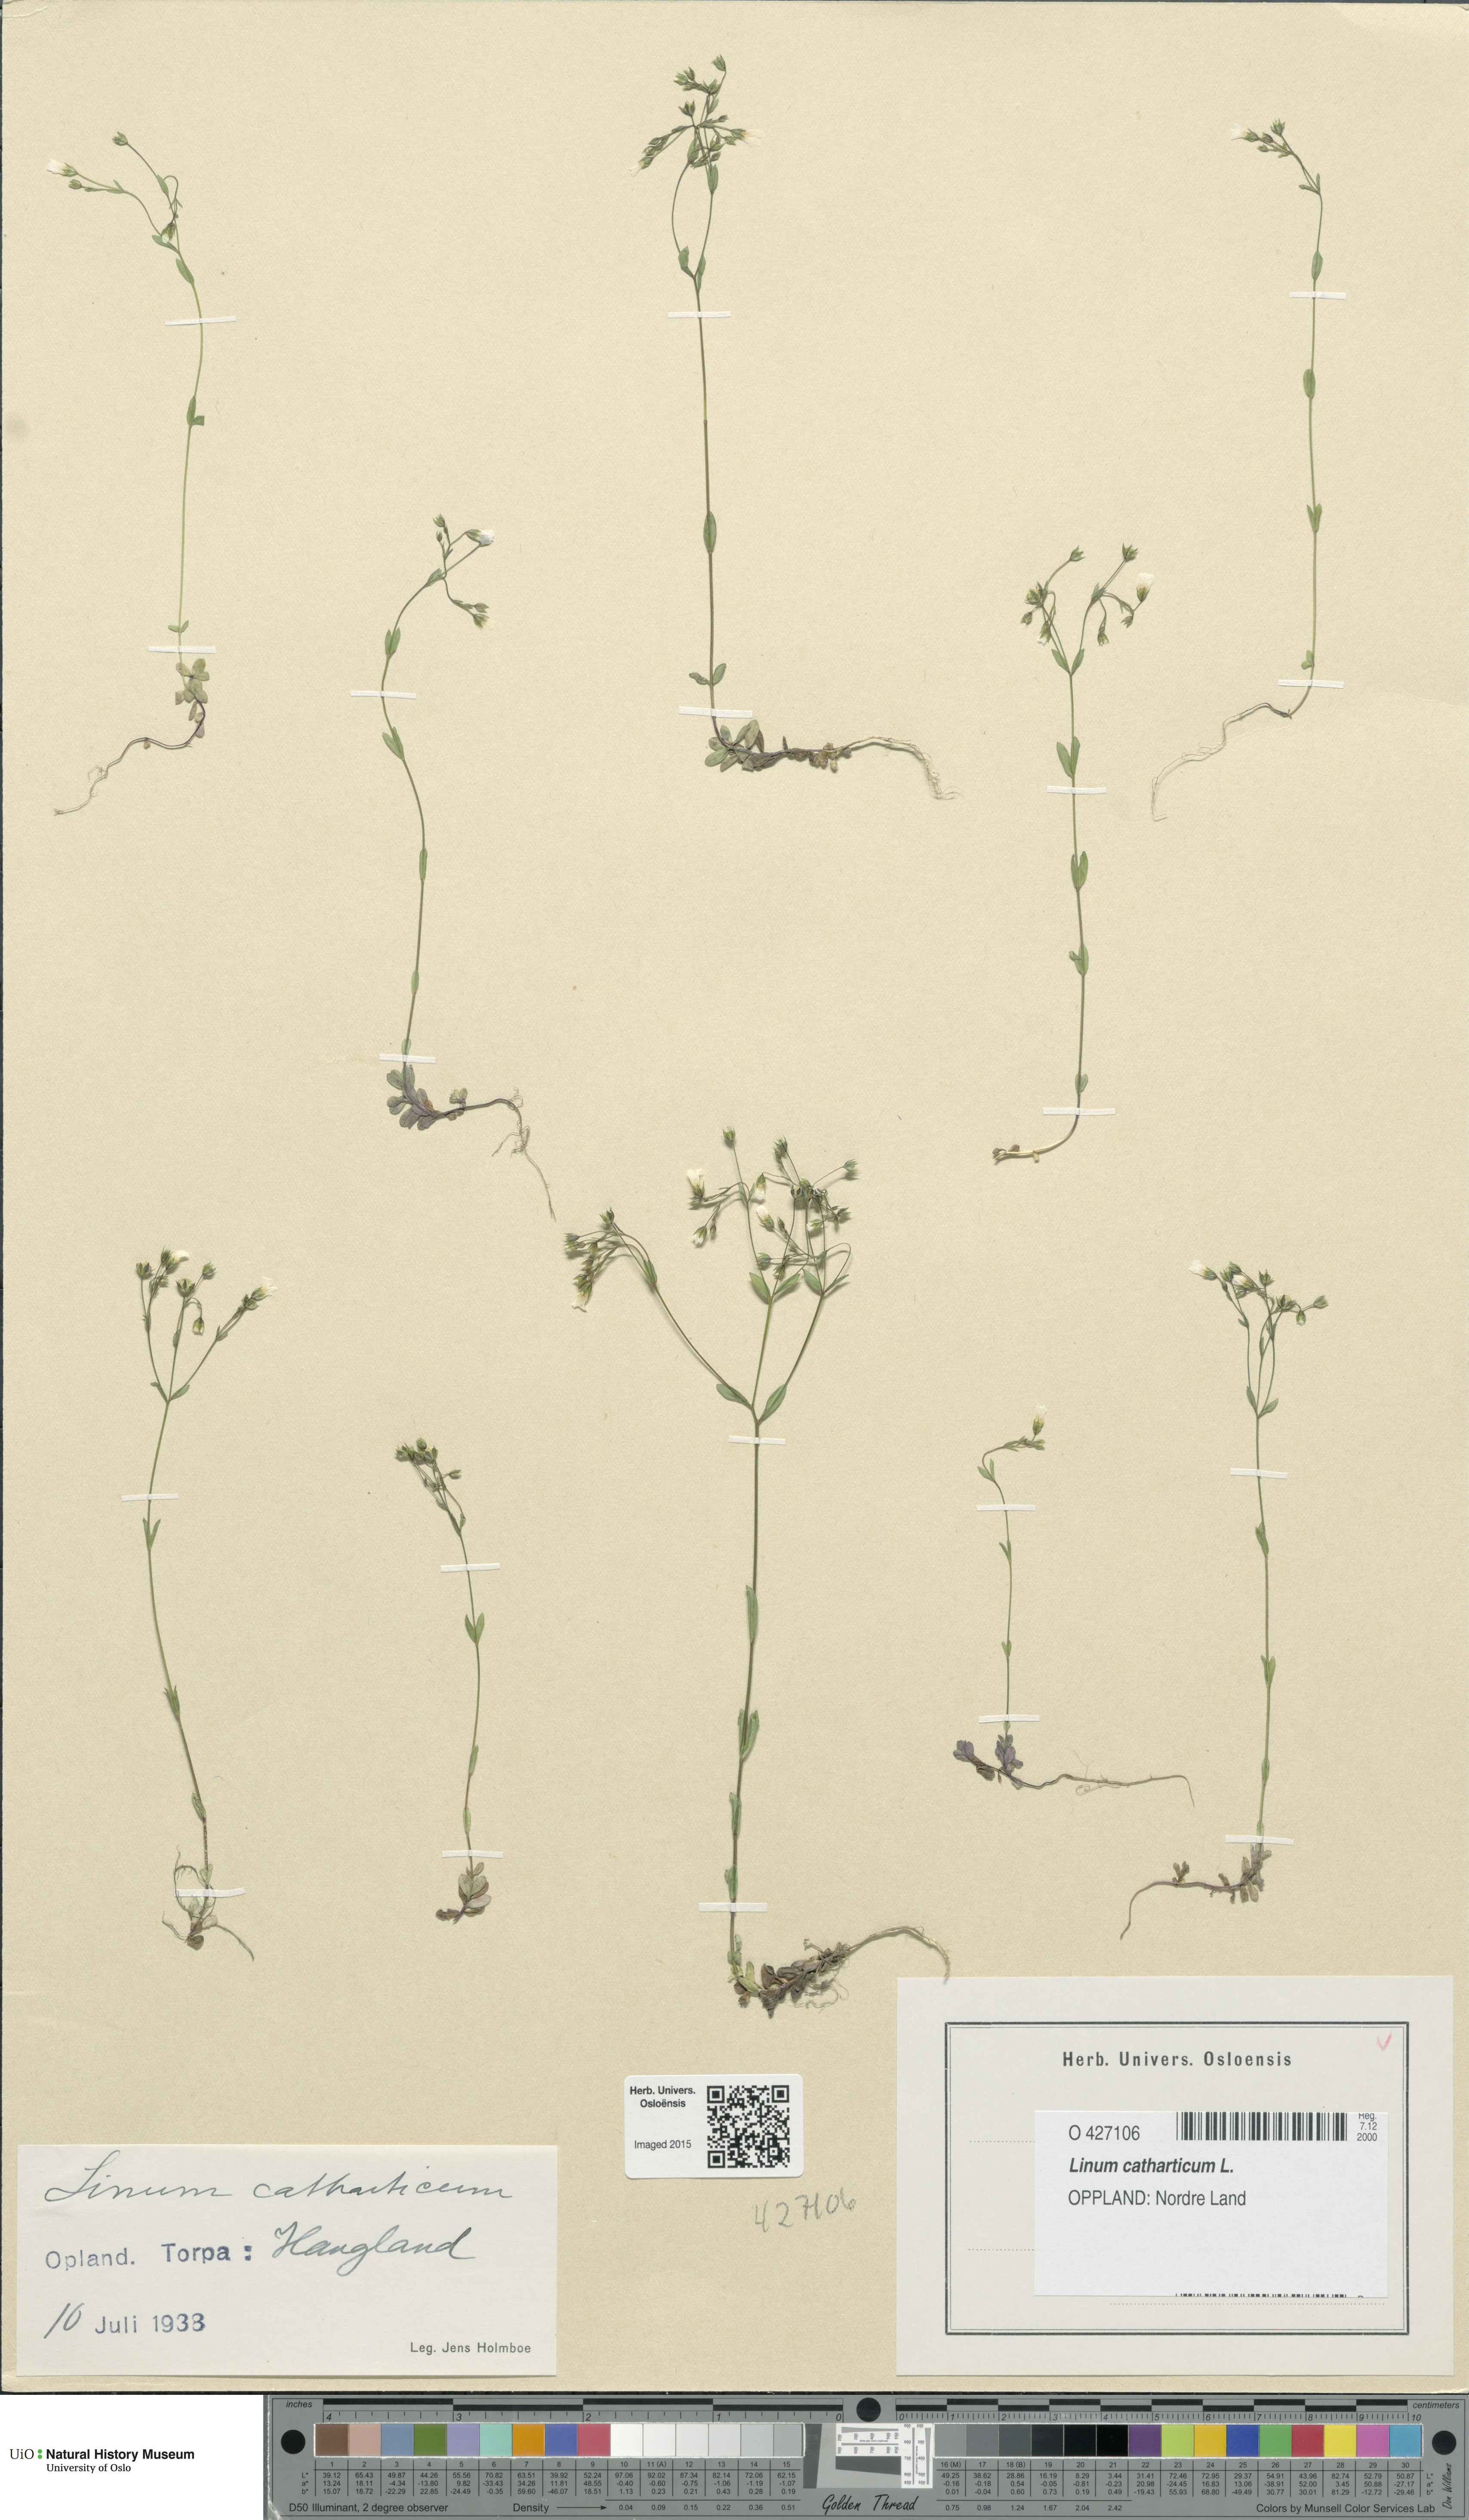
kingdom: Plantae
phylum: Tracheophyta
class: Magnoliopsida
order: Malpighiales
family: Linaceae
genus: Linum
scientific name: Linum catharticum
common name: Fairy flax
